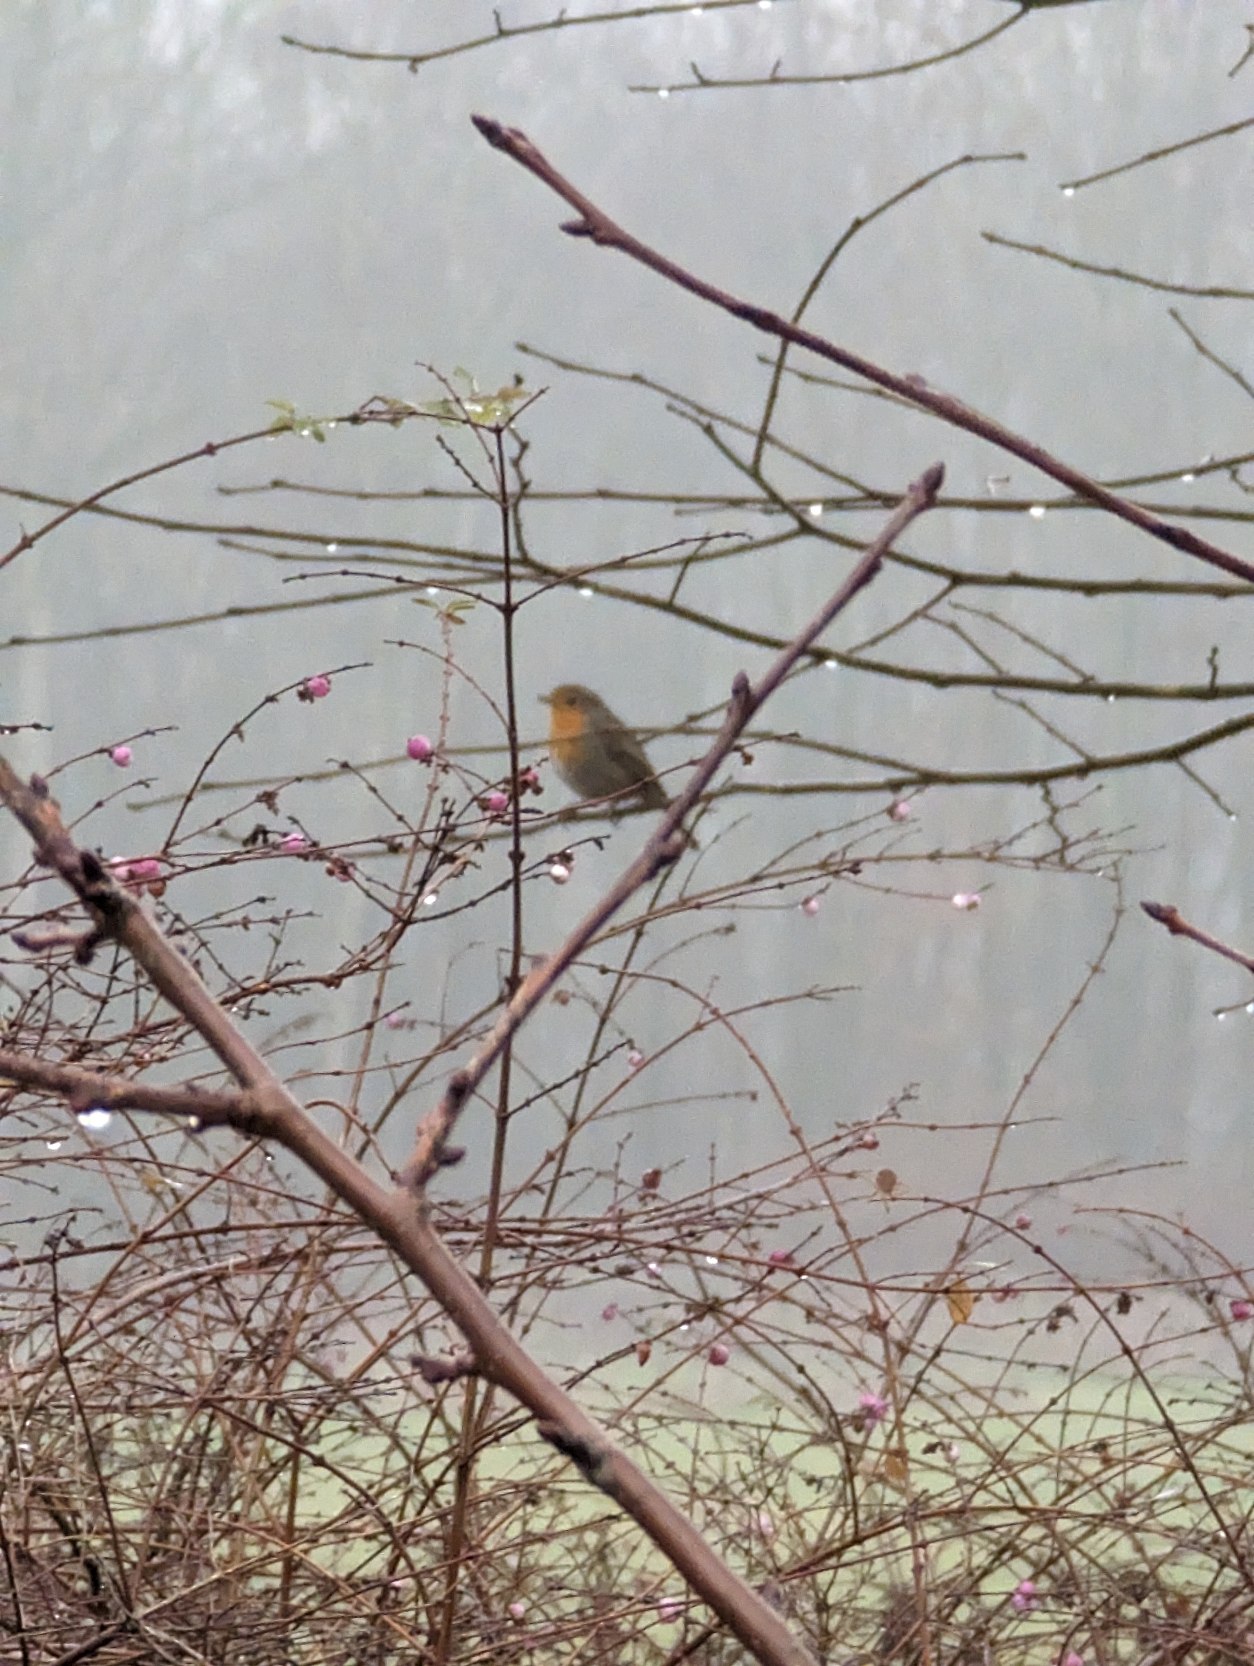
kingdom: Animalia
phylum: Chordata
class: Aves
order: Passeriformes
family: Muscicapidae
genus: Erithacus
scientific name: Erithacus rubecula
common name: Rødhals/rødkælk
